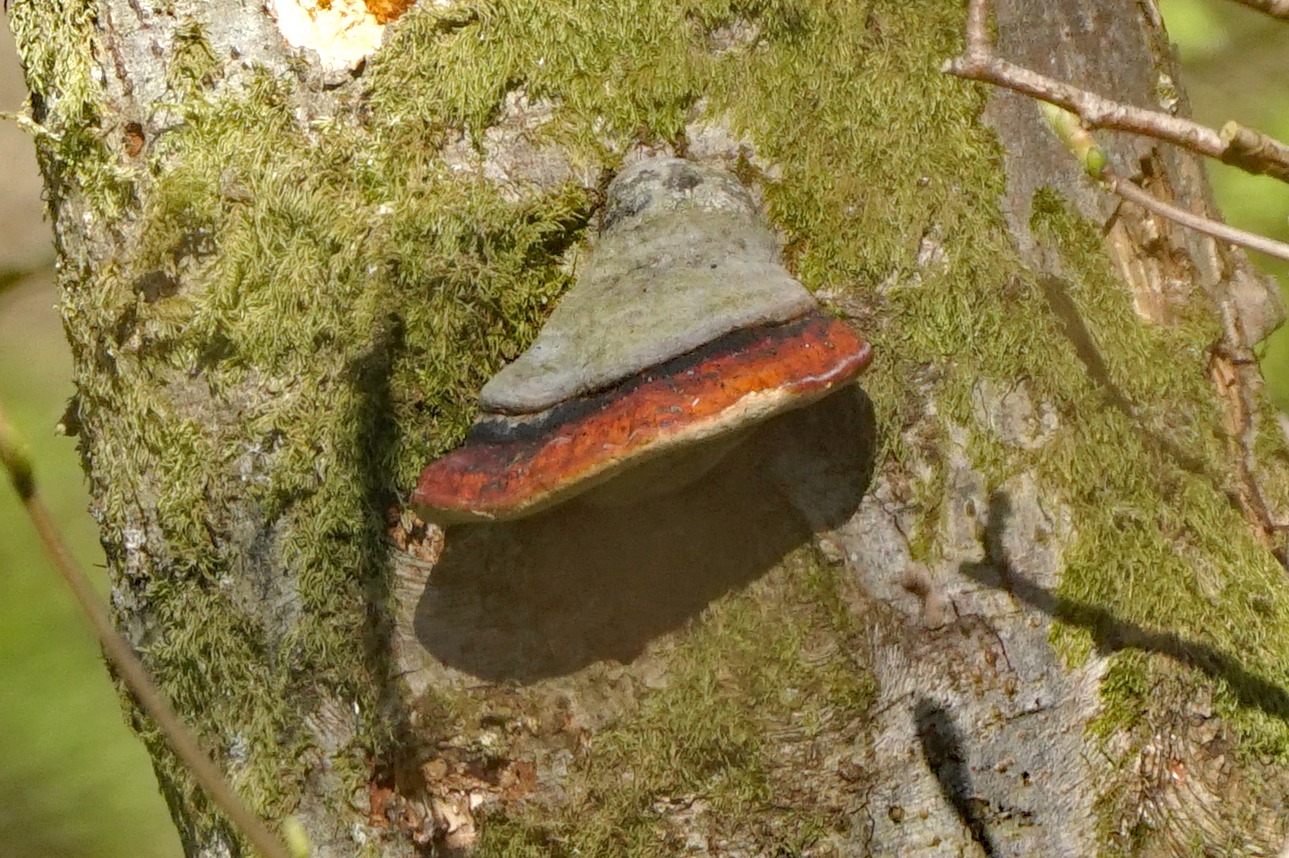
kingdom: Fungi
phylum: Basidiomycota
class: Agaricomycetes
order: Polyporales
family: Fomitopsidaceae
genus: Fomitopsis
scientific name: Fomitopsis pinicola
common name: Randbæltet hovporesvamp
